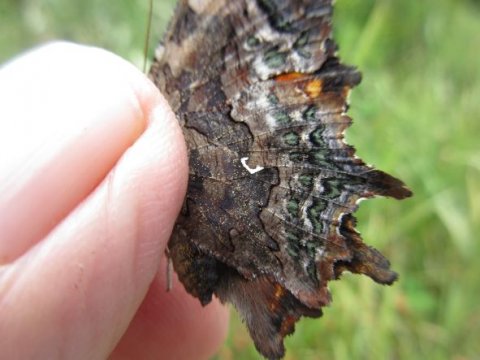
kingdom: Animalia
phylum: Arthropoda
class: Insecta
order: Lepidoptera
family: Nymphalidae
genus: Polygonia
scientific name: Polygonia faunus
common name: Green Comma
